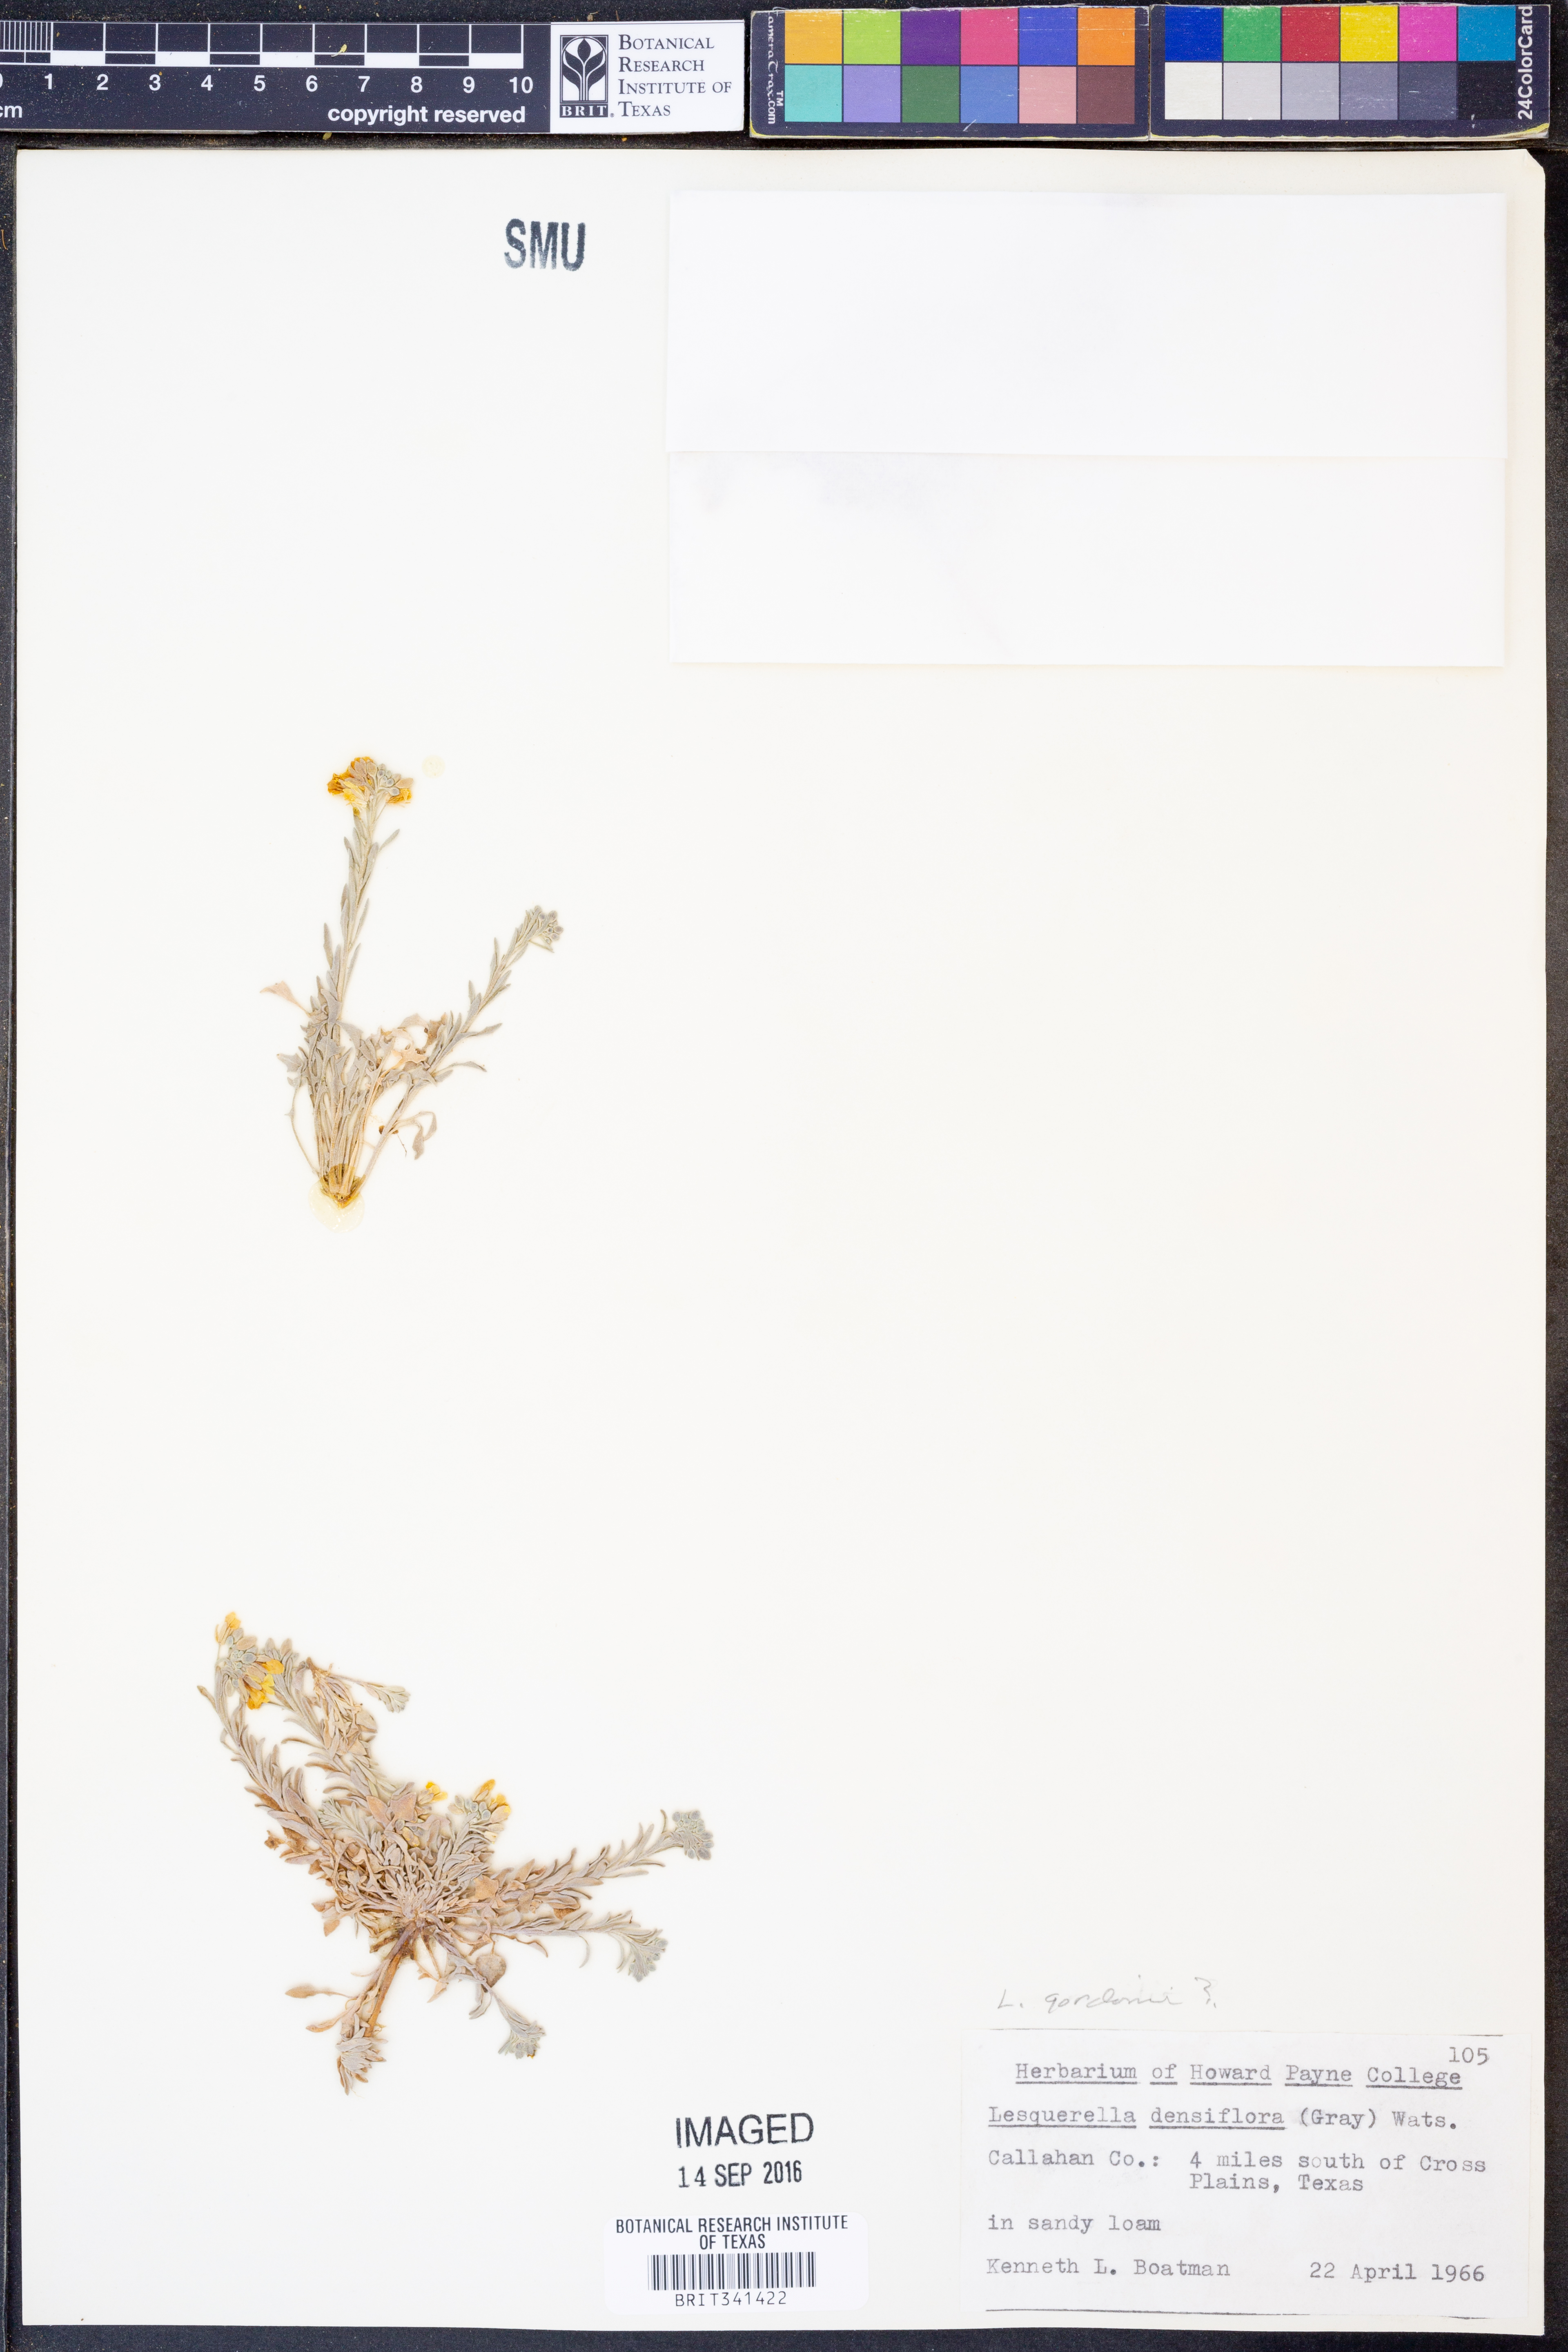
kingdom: Plantae
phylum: Tracheophyta
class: Magnoliopsida
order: Brassicales
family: Brassicaceae
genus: Physaria
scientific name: Physaria gordonii
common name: Gordon's bladderpod
